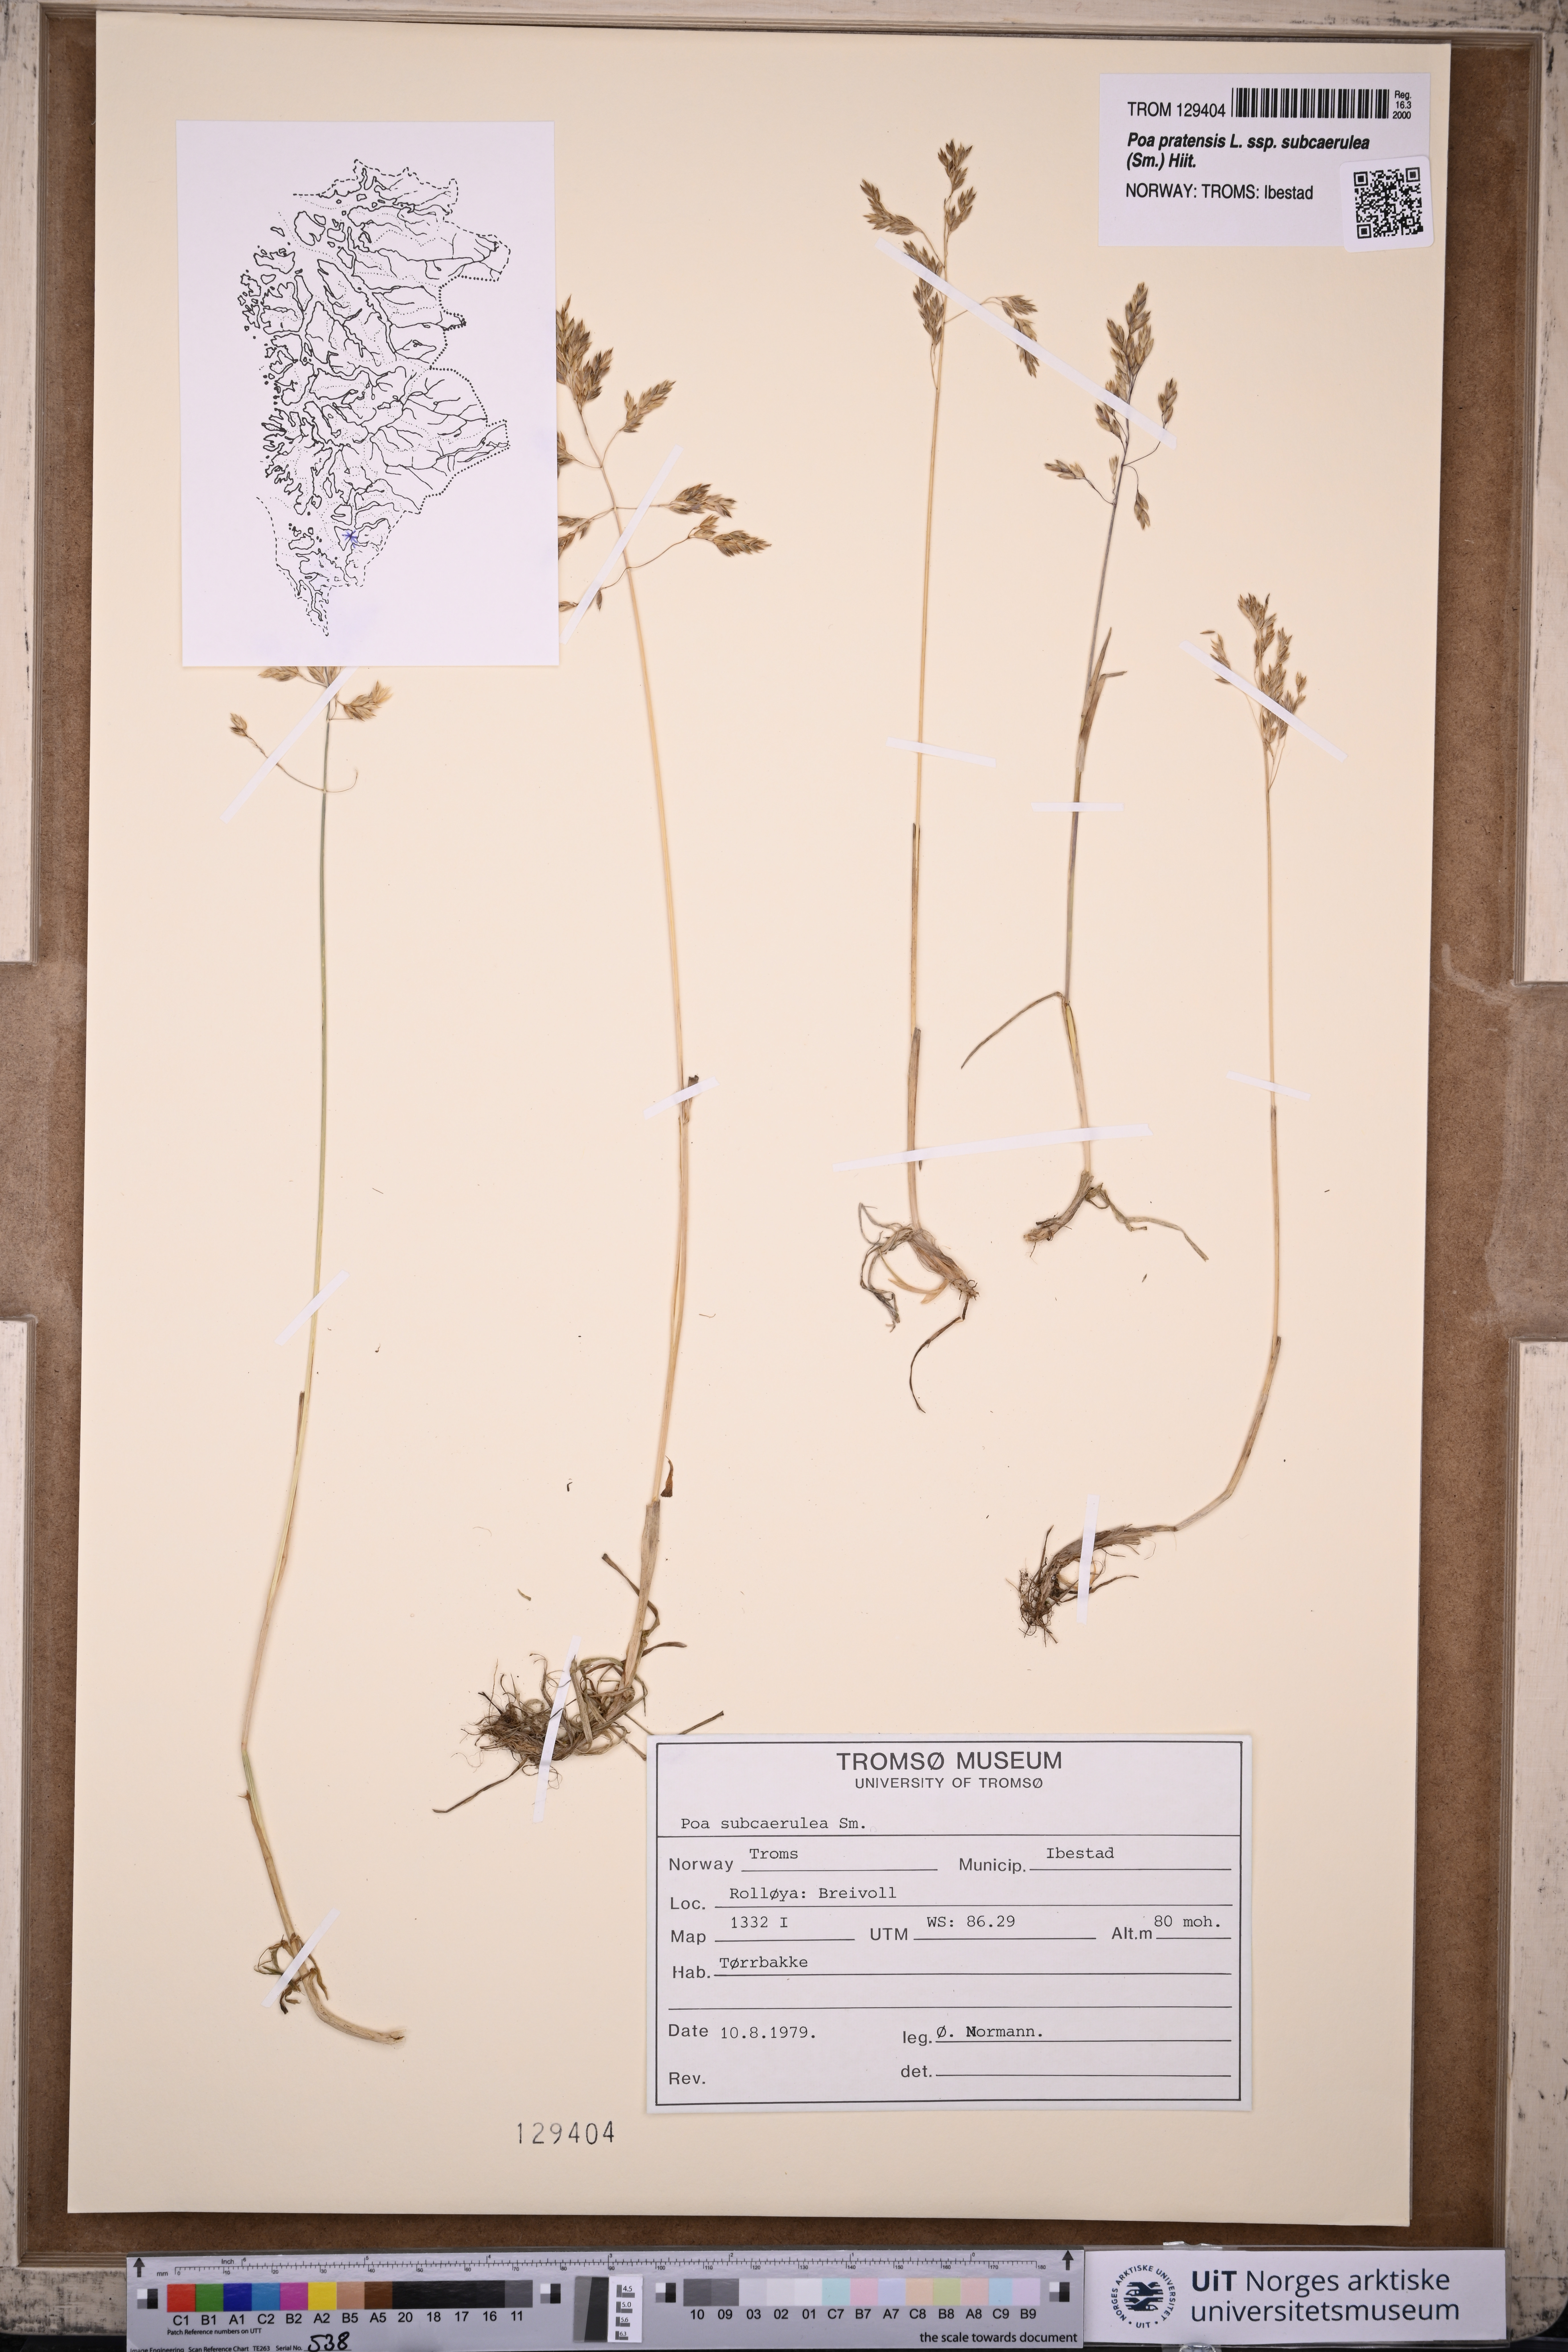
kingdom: Plantae
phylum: Tracheophyta
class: Liliopsida
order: Poales
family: Poaceae
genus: Poa
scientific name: Poa humilis
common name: Spreading meadow-grass
